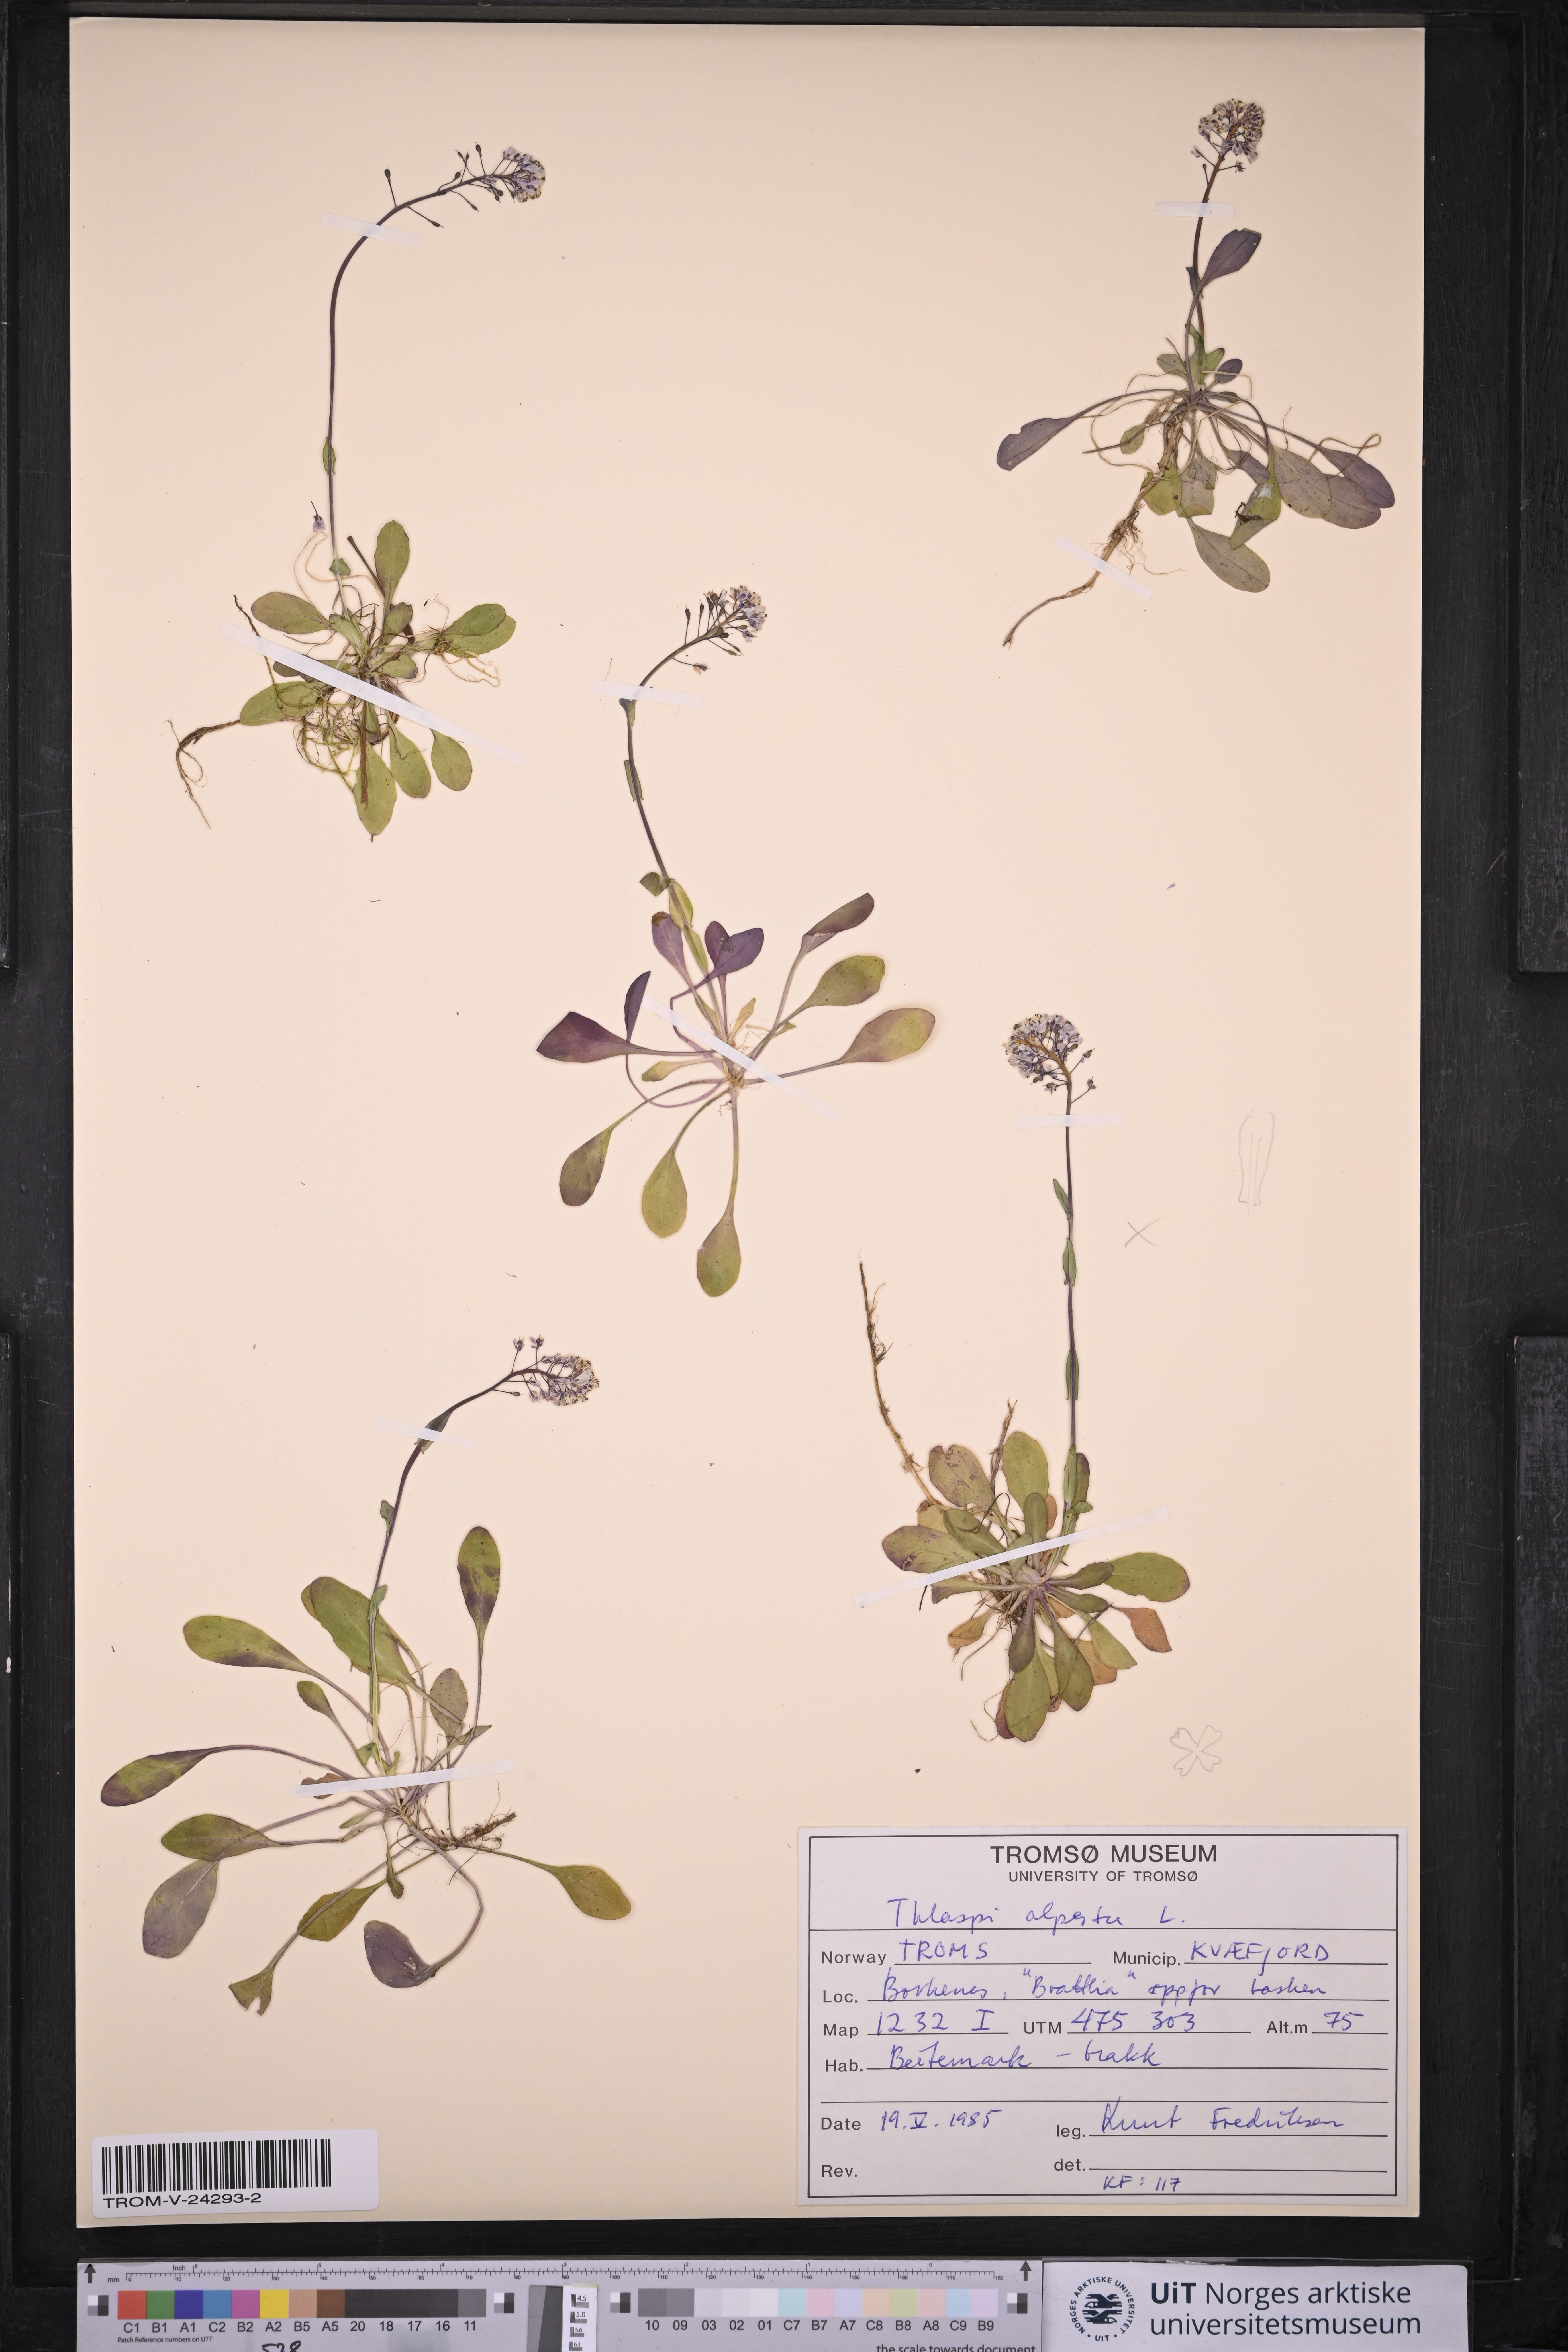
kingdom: Plantae
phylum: Tracheophyta
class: Magnoliopsida
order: Brassicales
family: Brassicaceae
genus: Noccaea
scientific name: Noccaea caerulescens
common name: Alpine pennycress
